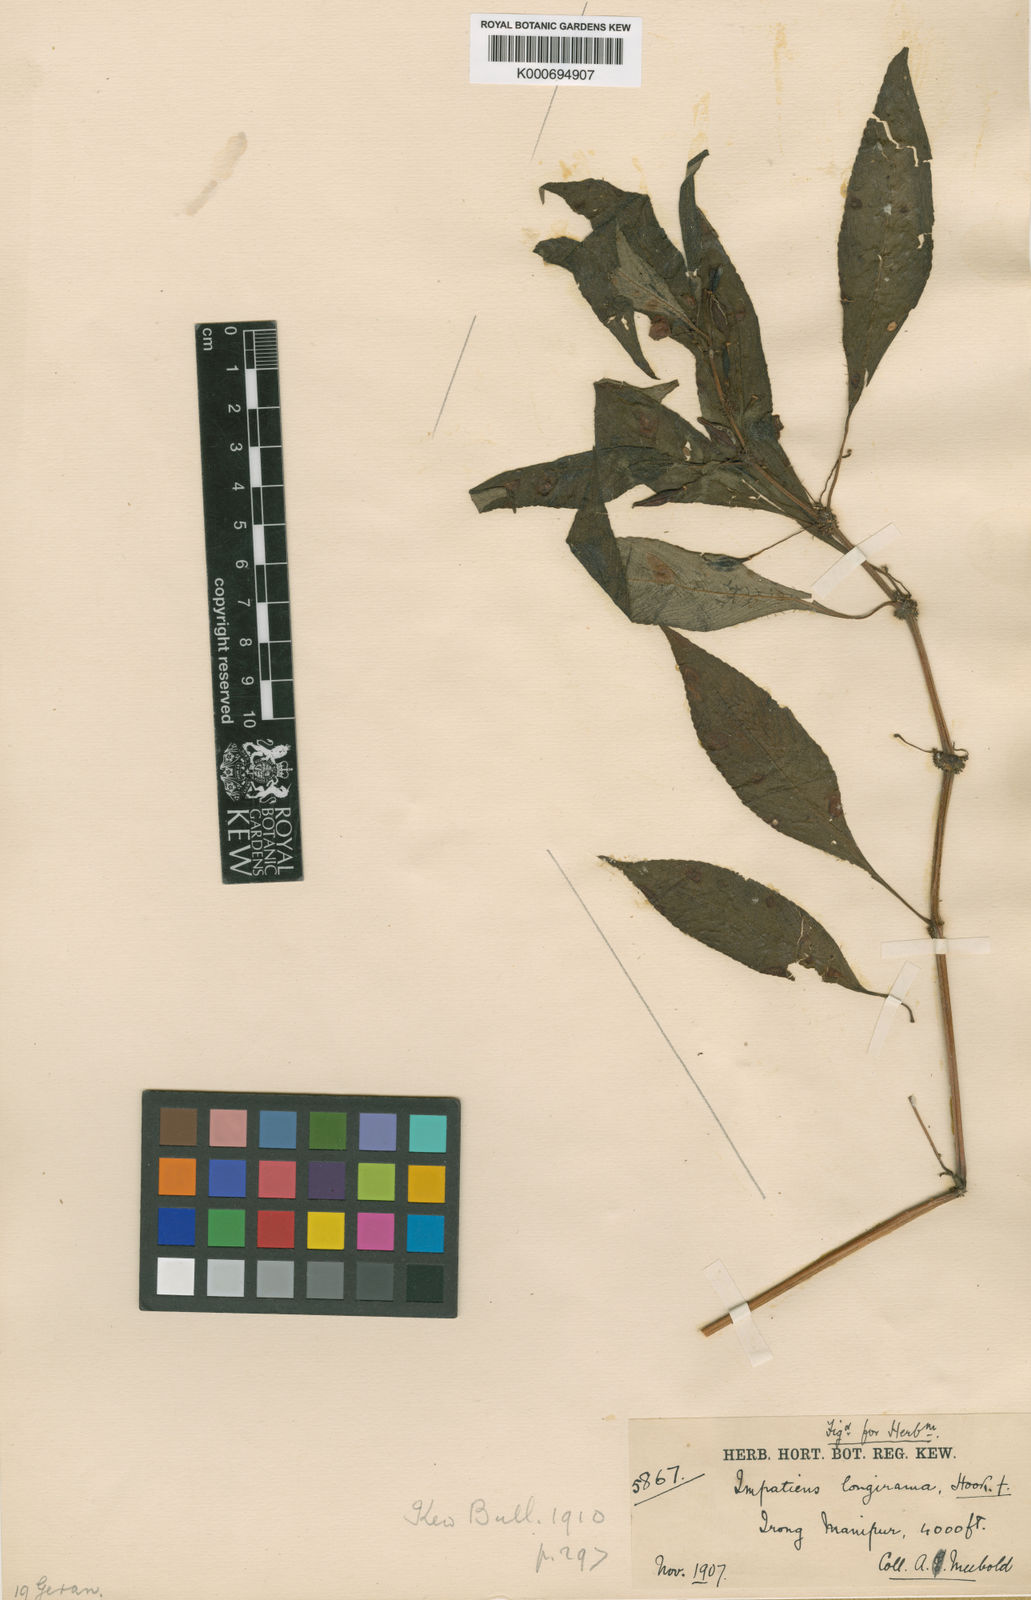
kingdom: Plantae
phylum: Tracheophyta
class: Magnoliopsida
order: Ericales
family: Balsaminaceae
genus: Impatiens
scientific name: Impatiens
